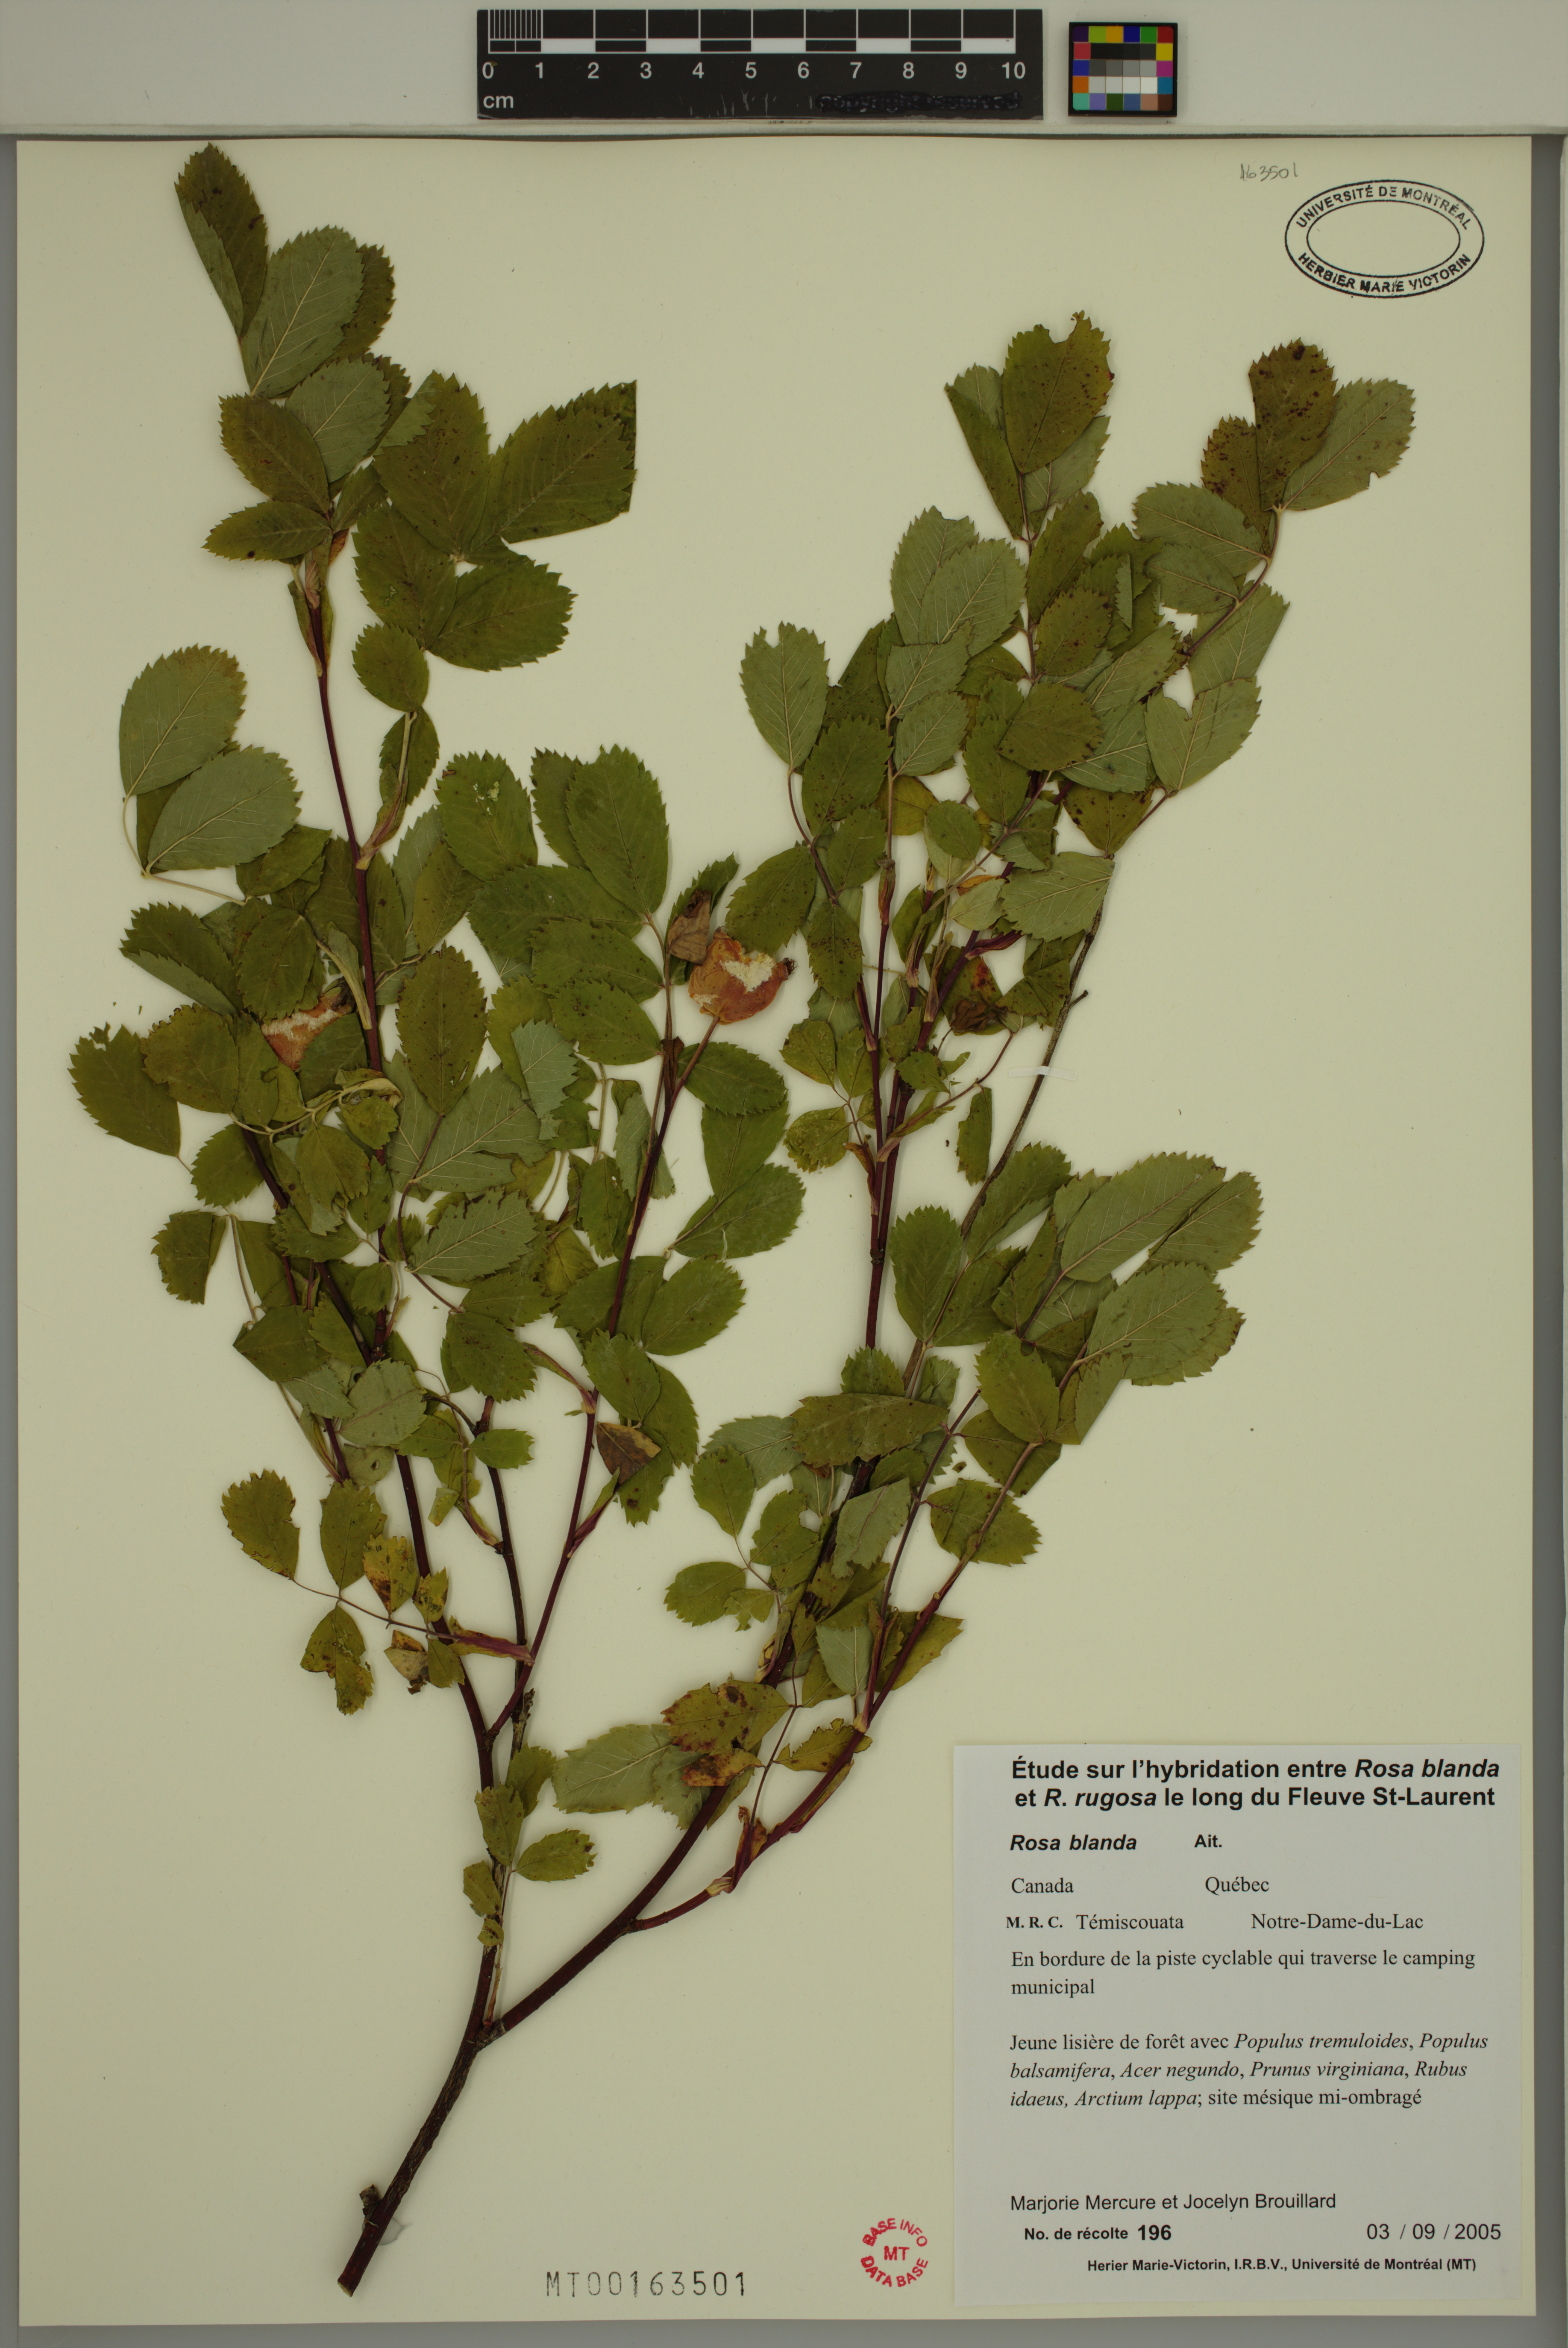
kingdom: Plantae
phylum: Tracheophyta
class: Magnoliopsida
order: Rosales
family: Rosaceae
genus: Rosa
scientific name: Rosa blanda
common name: Smooth rose
